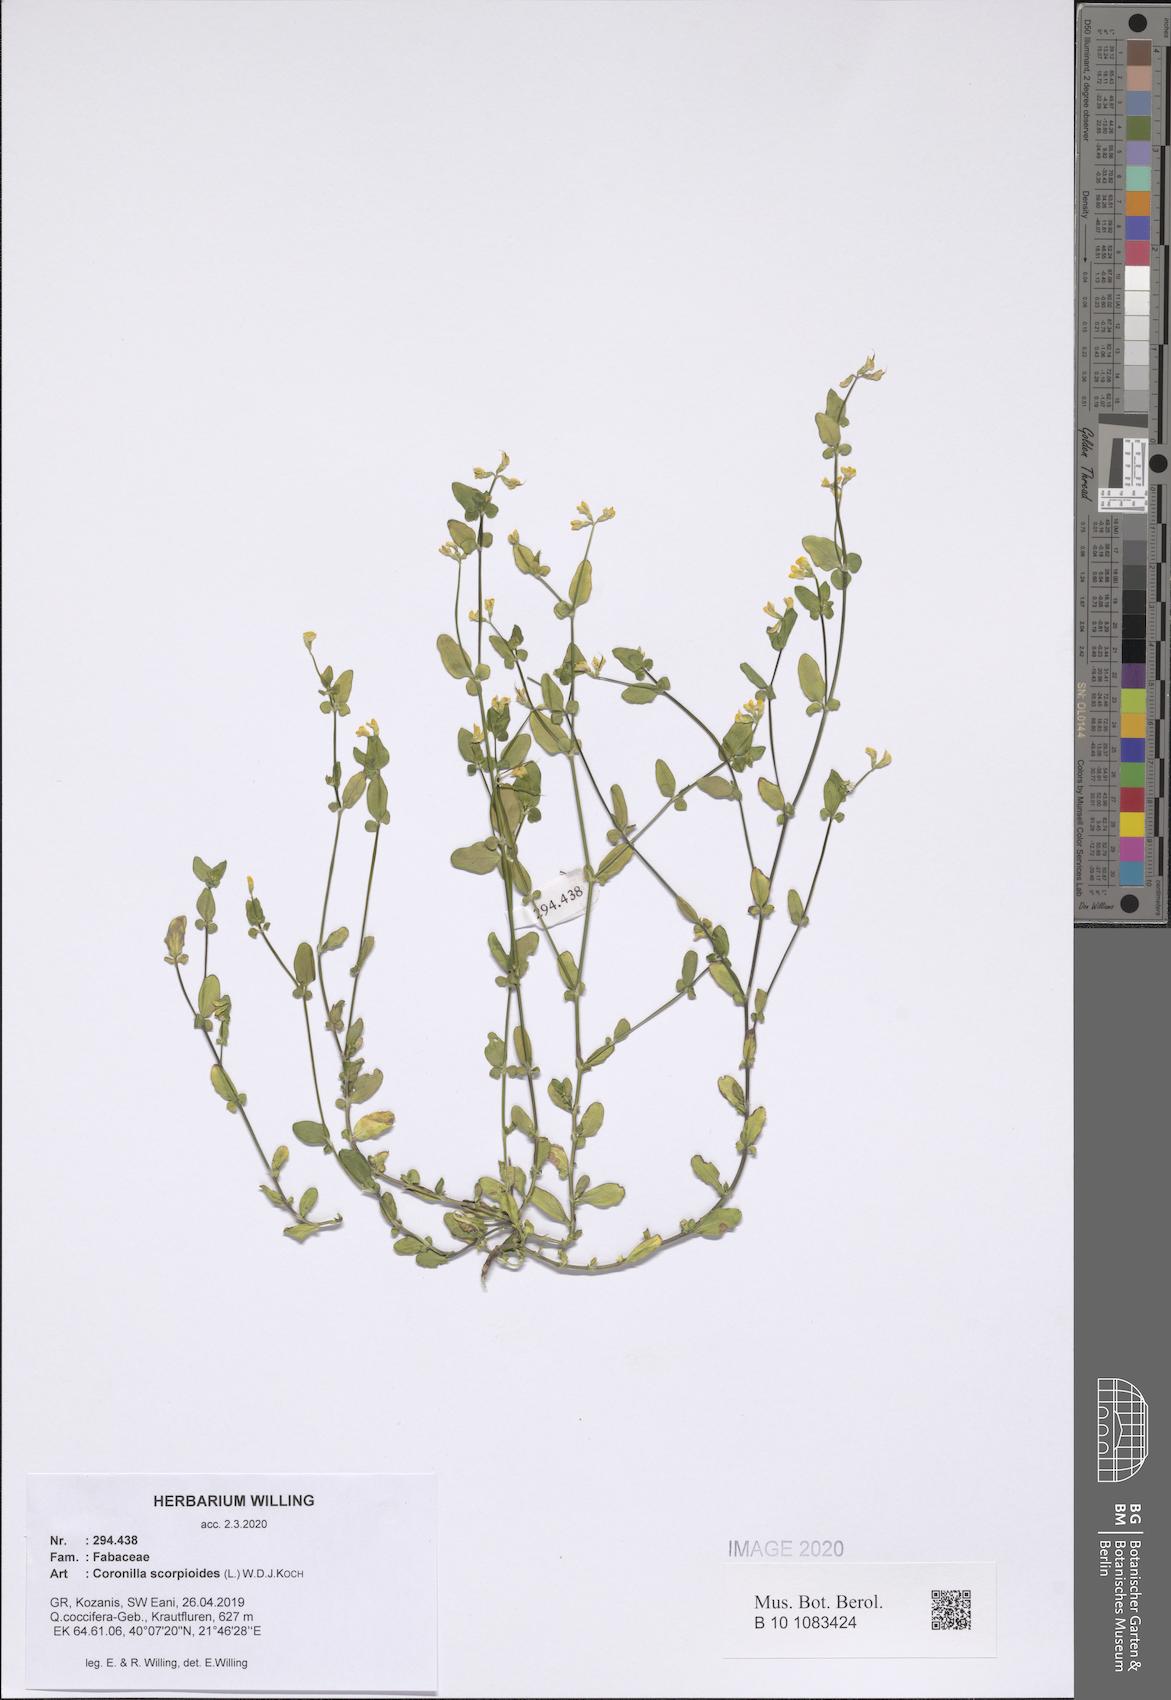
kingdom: Plantae
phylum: Tracheophyta
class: Magnoliopsida
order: Fabales
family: Fabaceae
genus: Coronilla
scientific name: Coronilla scorpioides
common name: Annual scorpion-vetch
